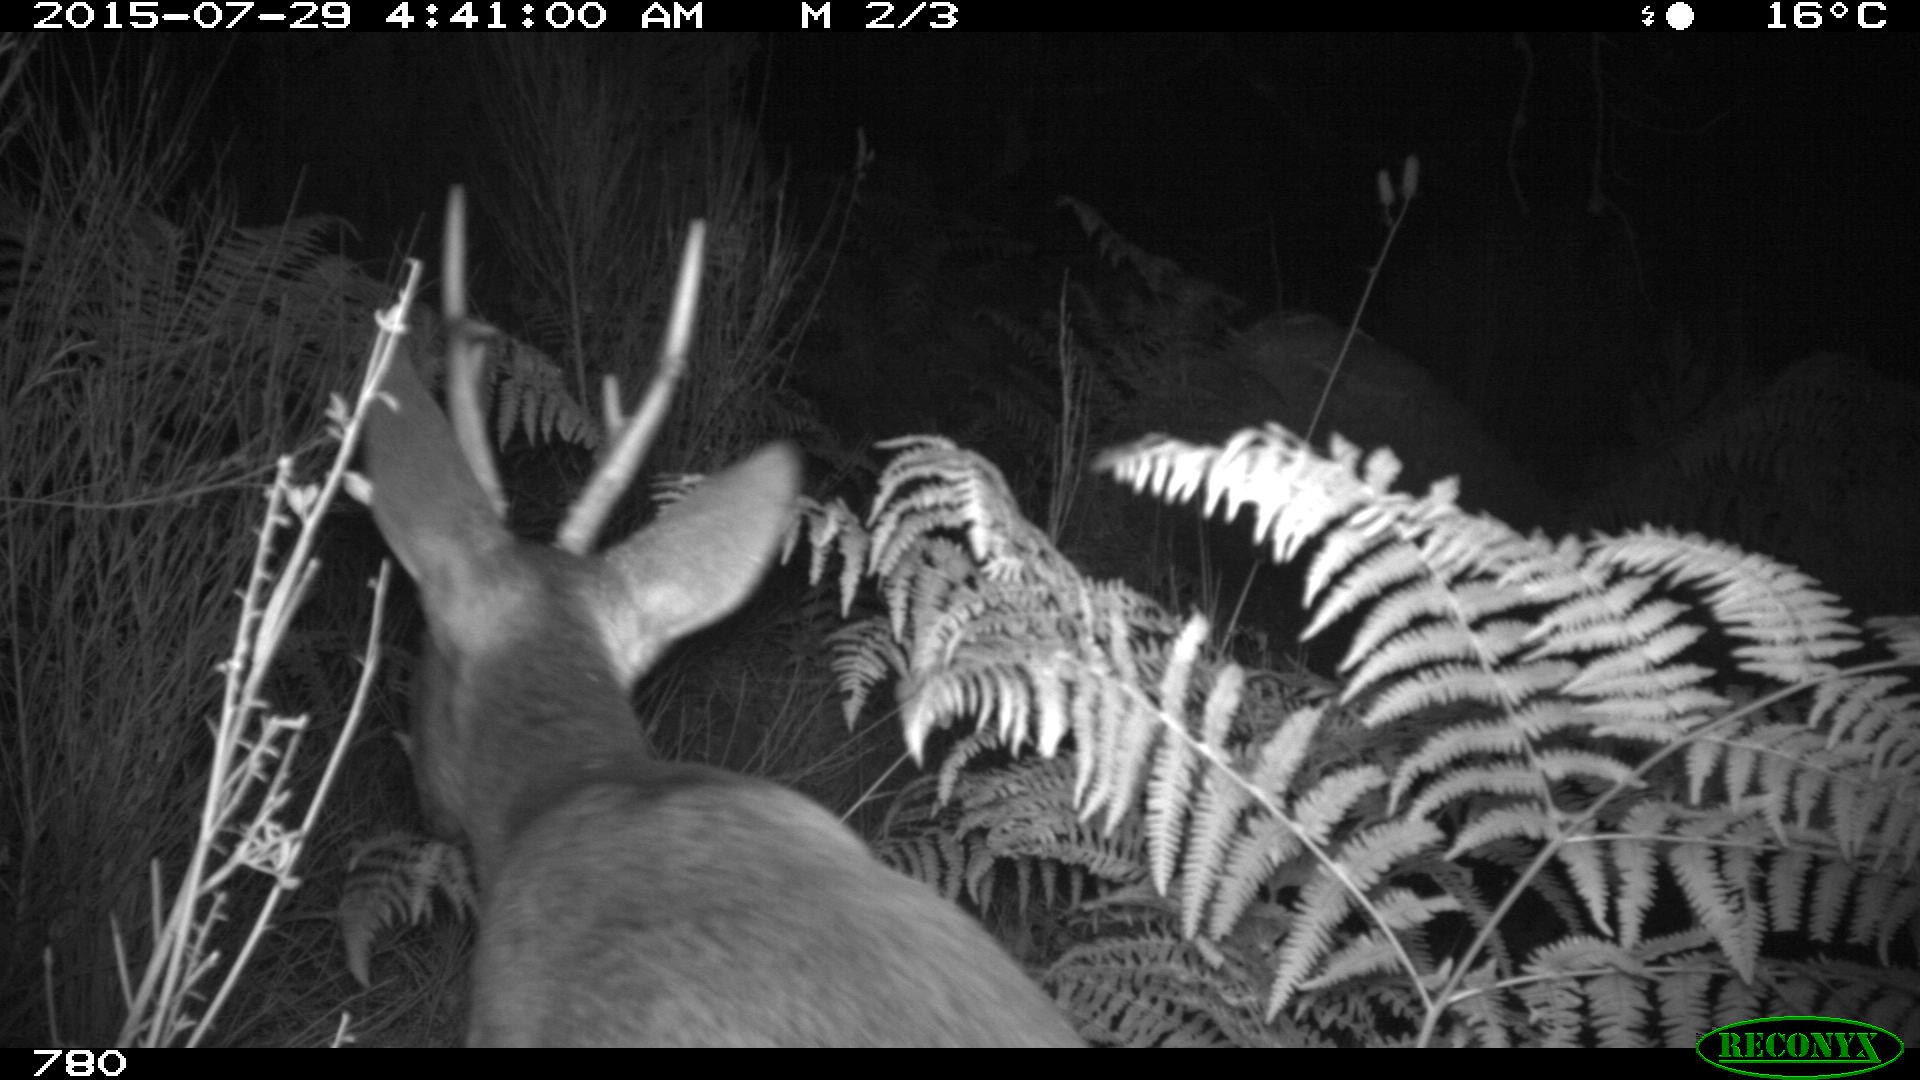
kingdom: Animalia
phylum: Chordata
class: Mammalia
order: Artiodactyla
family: Cervidae
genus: Capreolus
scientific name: Capreolus capreolus
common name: Western roe deer
